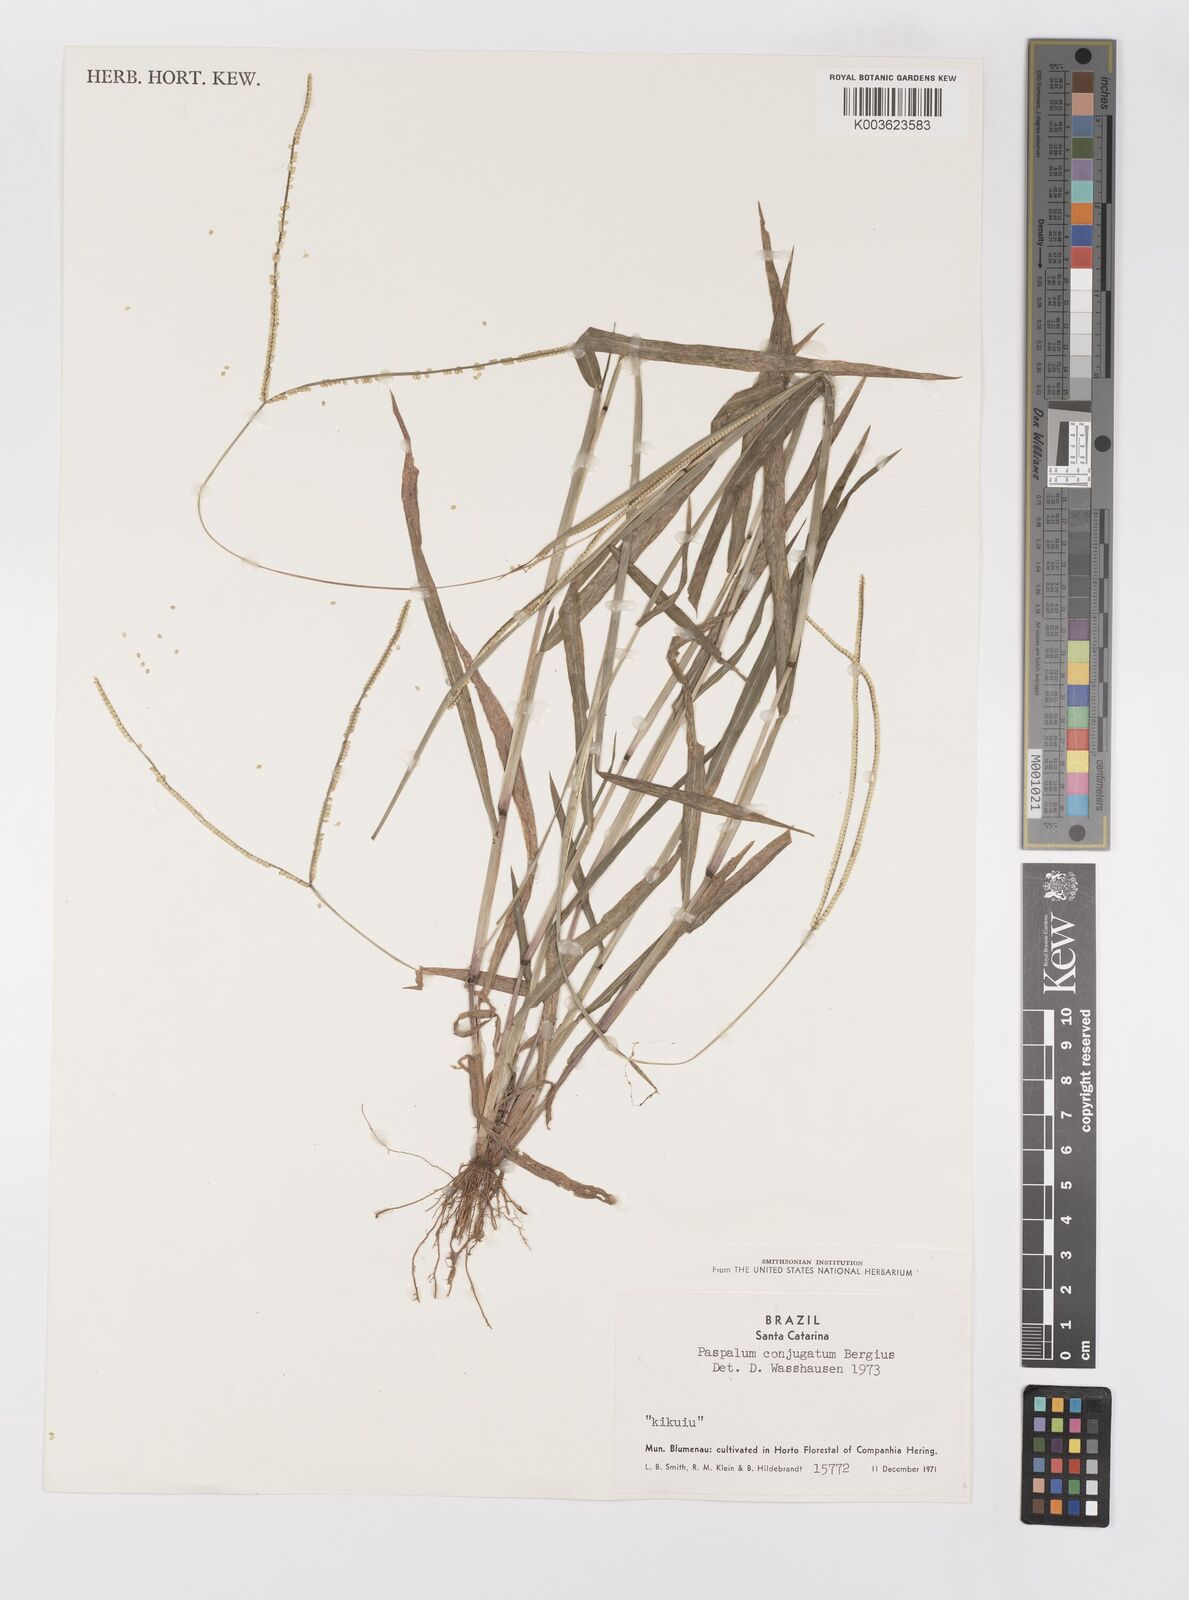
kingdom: Plantae
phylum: Tracheophyta
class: Liliopsida
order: Poales
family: Poaceae
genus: Paspalum
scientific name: Paspalum conjugatum
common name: Hilograss
